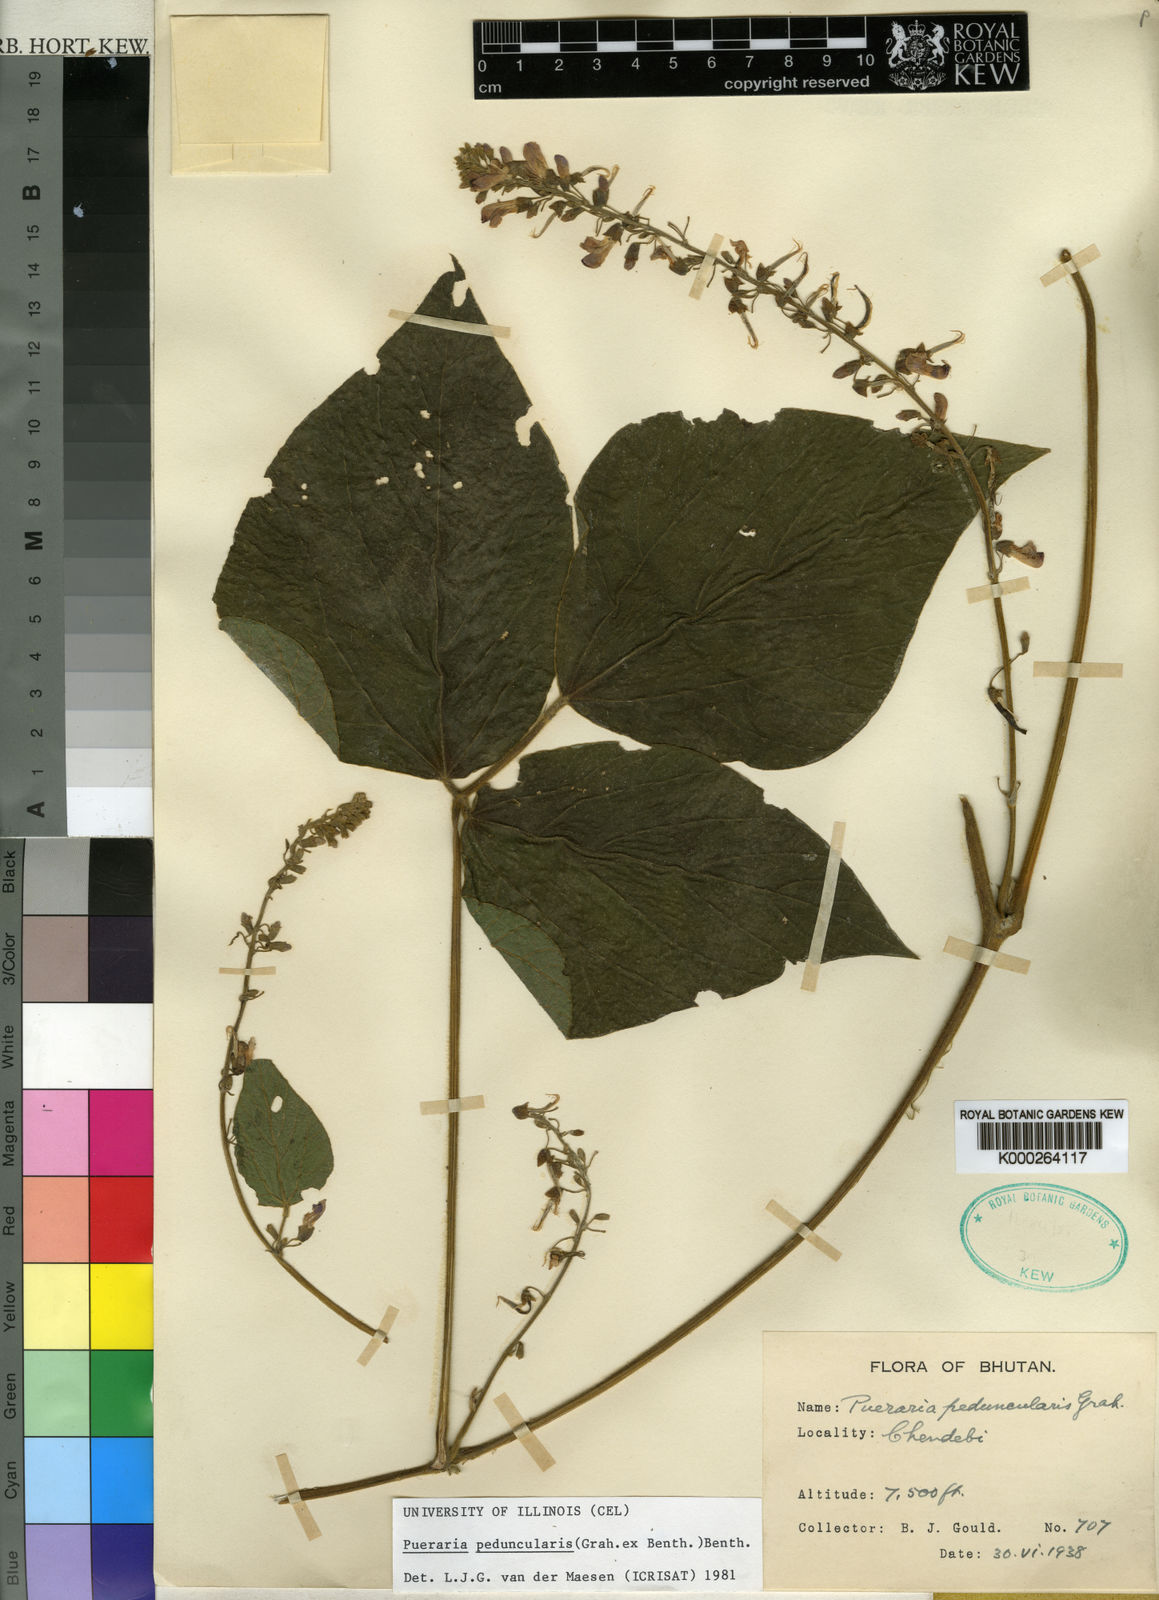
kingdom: Plantae
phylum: Tracheophyta
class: Magnoliopsida
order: Fabales
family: Fabaceae
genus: Toxicopueraria
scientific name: Toxicopueraria peduncularis
